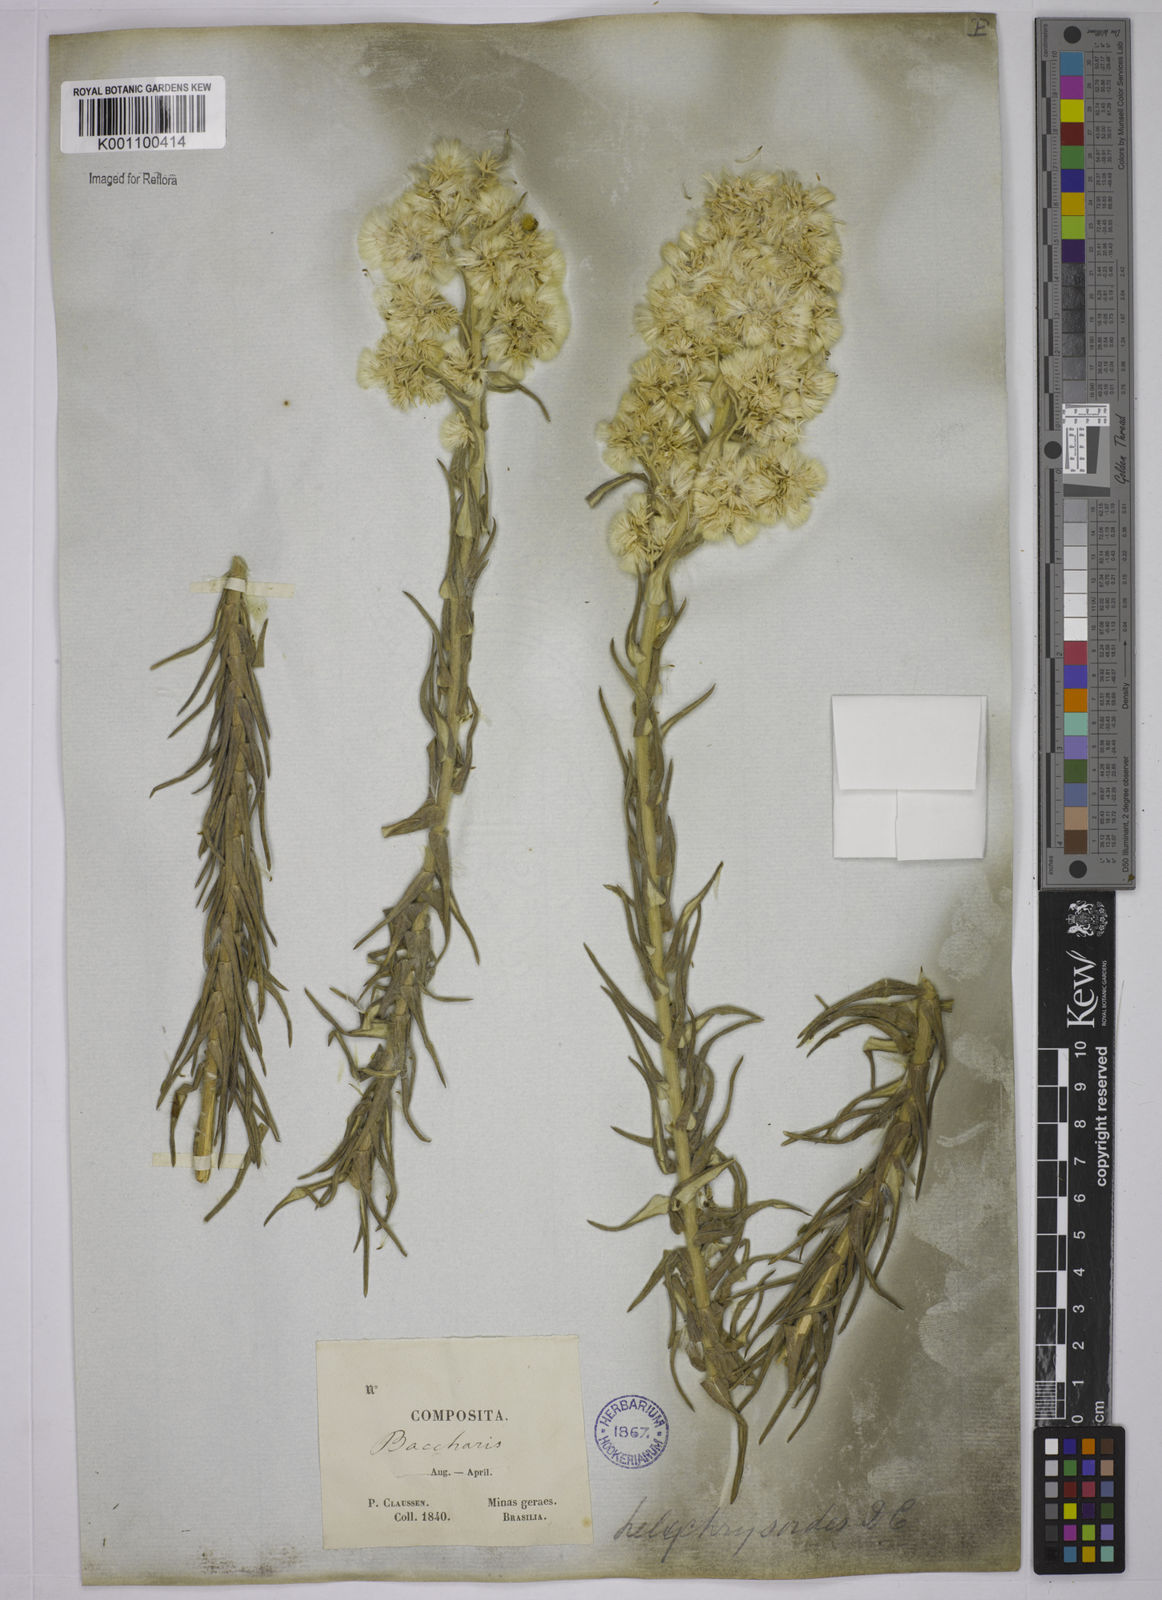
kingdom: Plantae
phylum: Tracheophyta
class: Magnoliopsida
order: Asterales
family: Asteraceae
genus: Baccharis
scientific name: Baccharis helichrysoides
